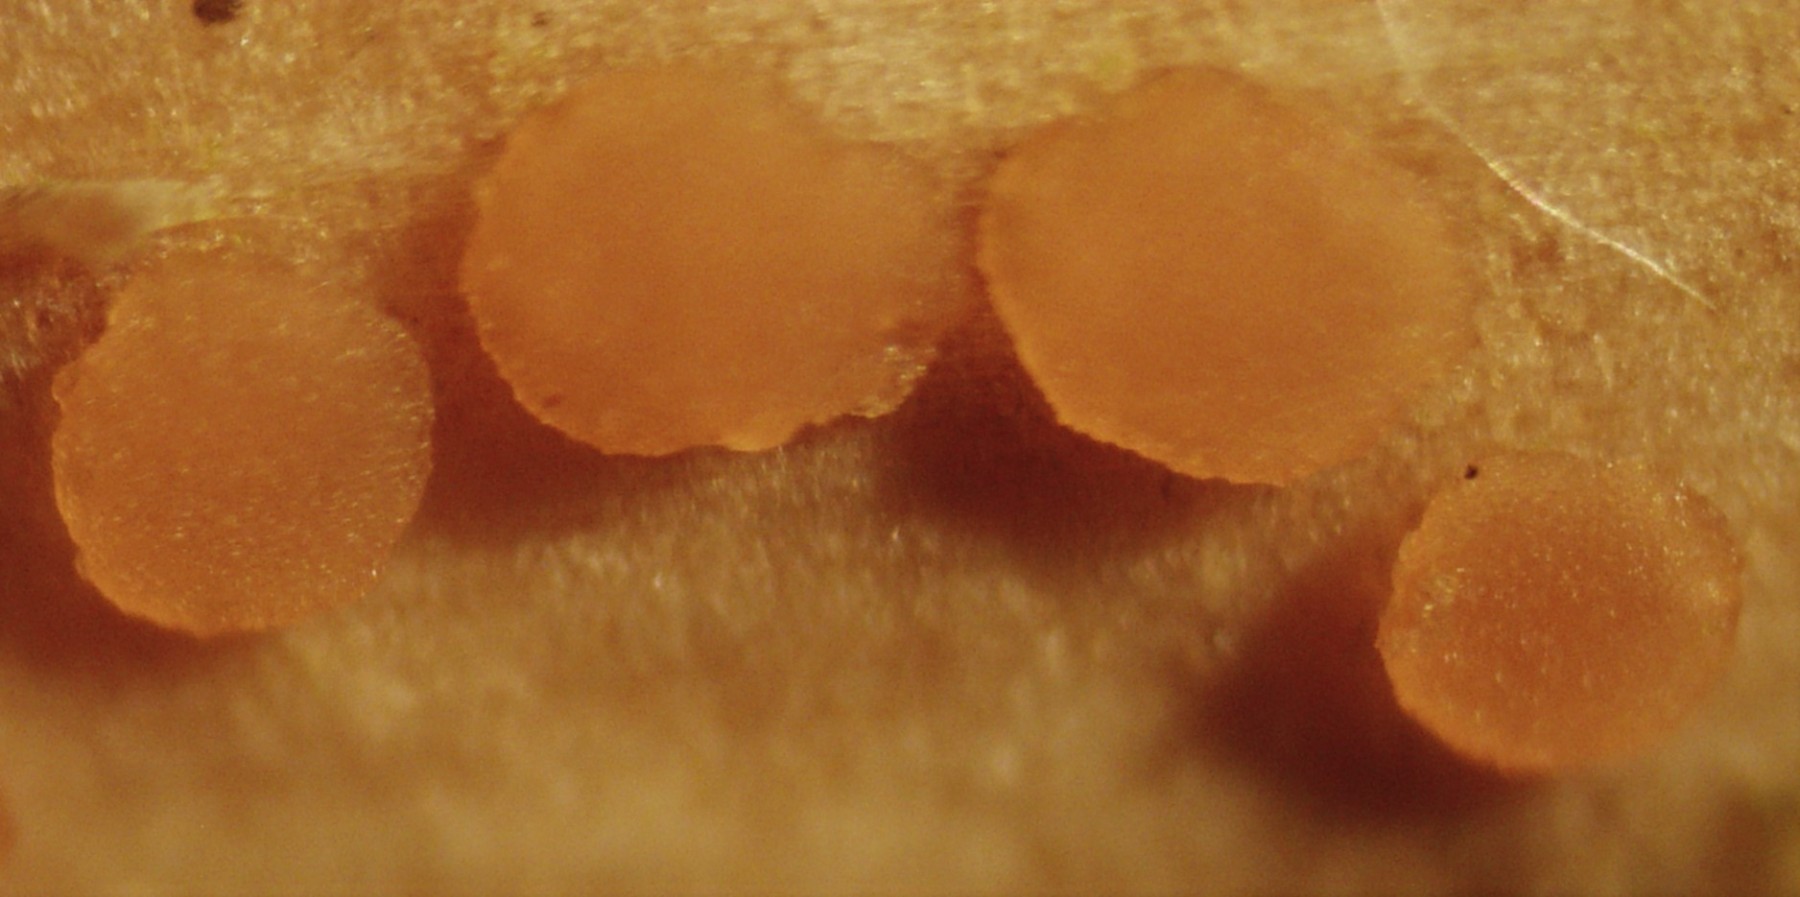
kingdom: Fungi
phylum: Ascomycota
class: Leotiomycetes
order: Helotiales
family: Calloriaceae
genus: Calloria
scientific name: Calloria urticae
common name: nælde-orangeskive
